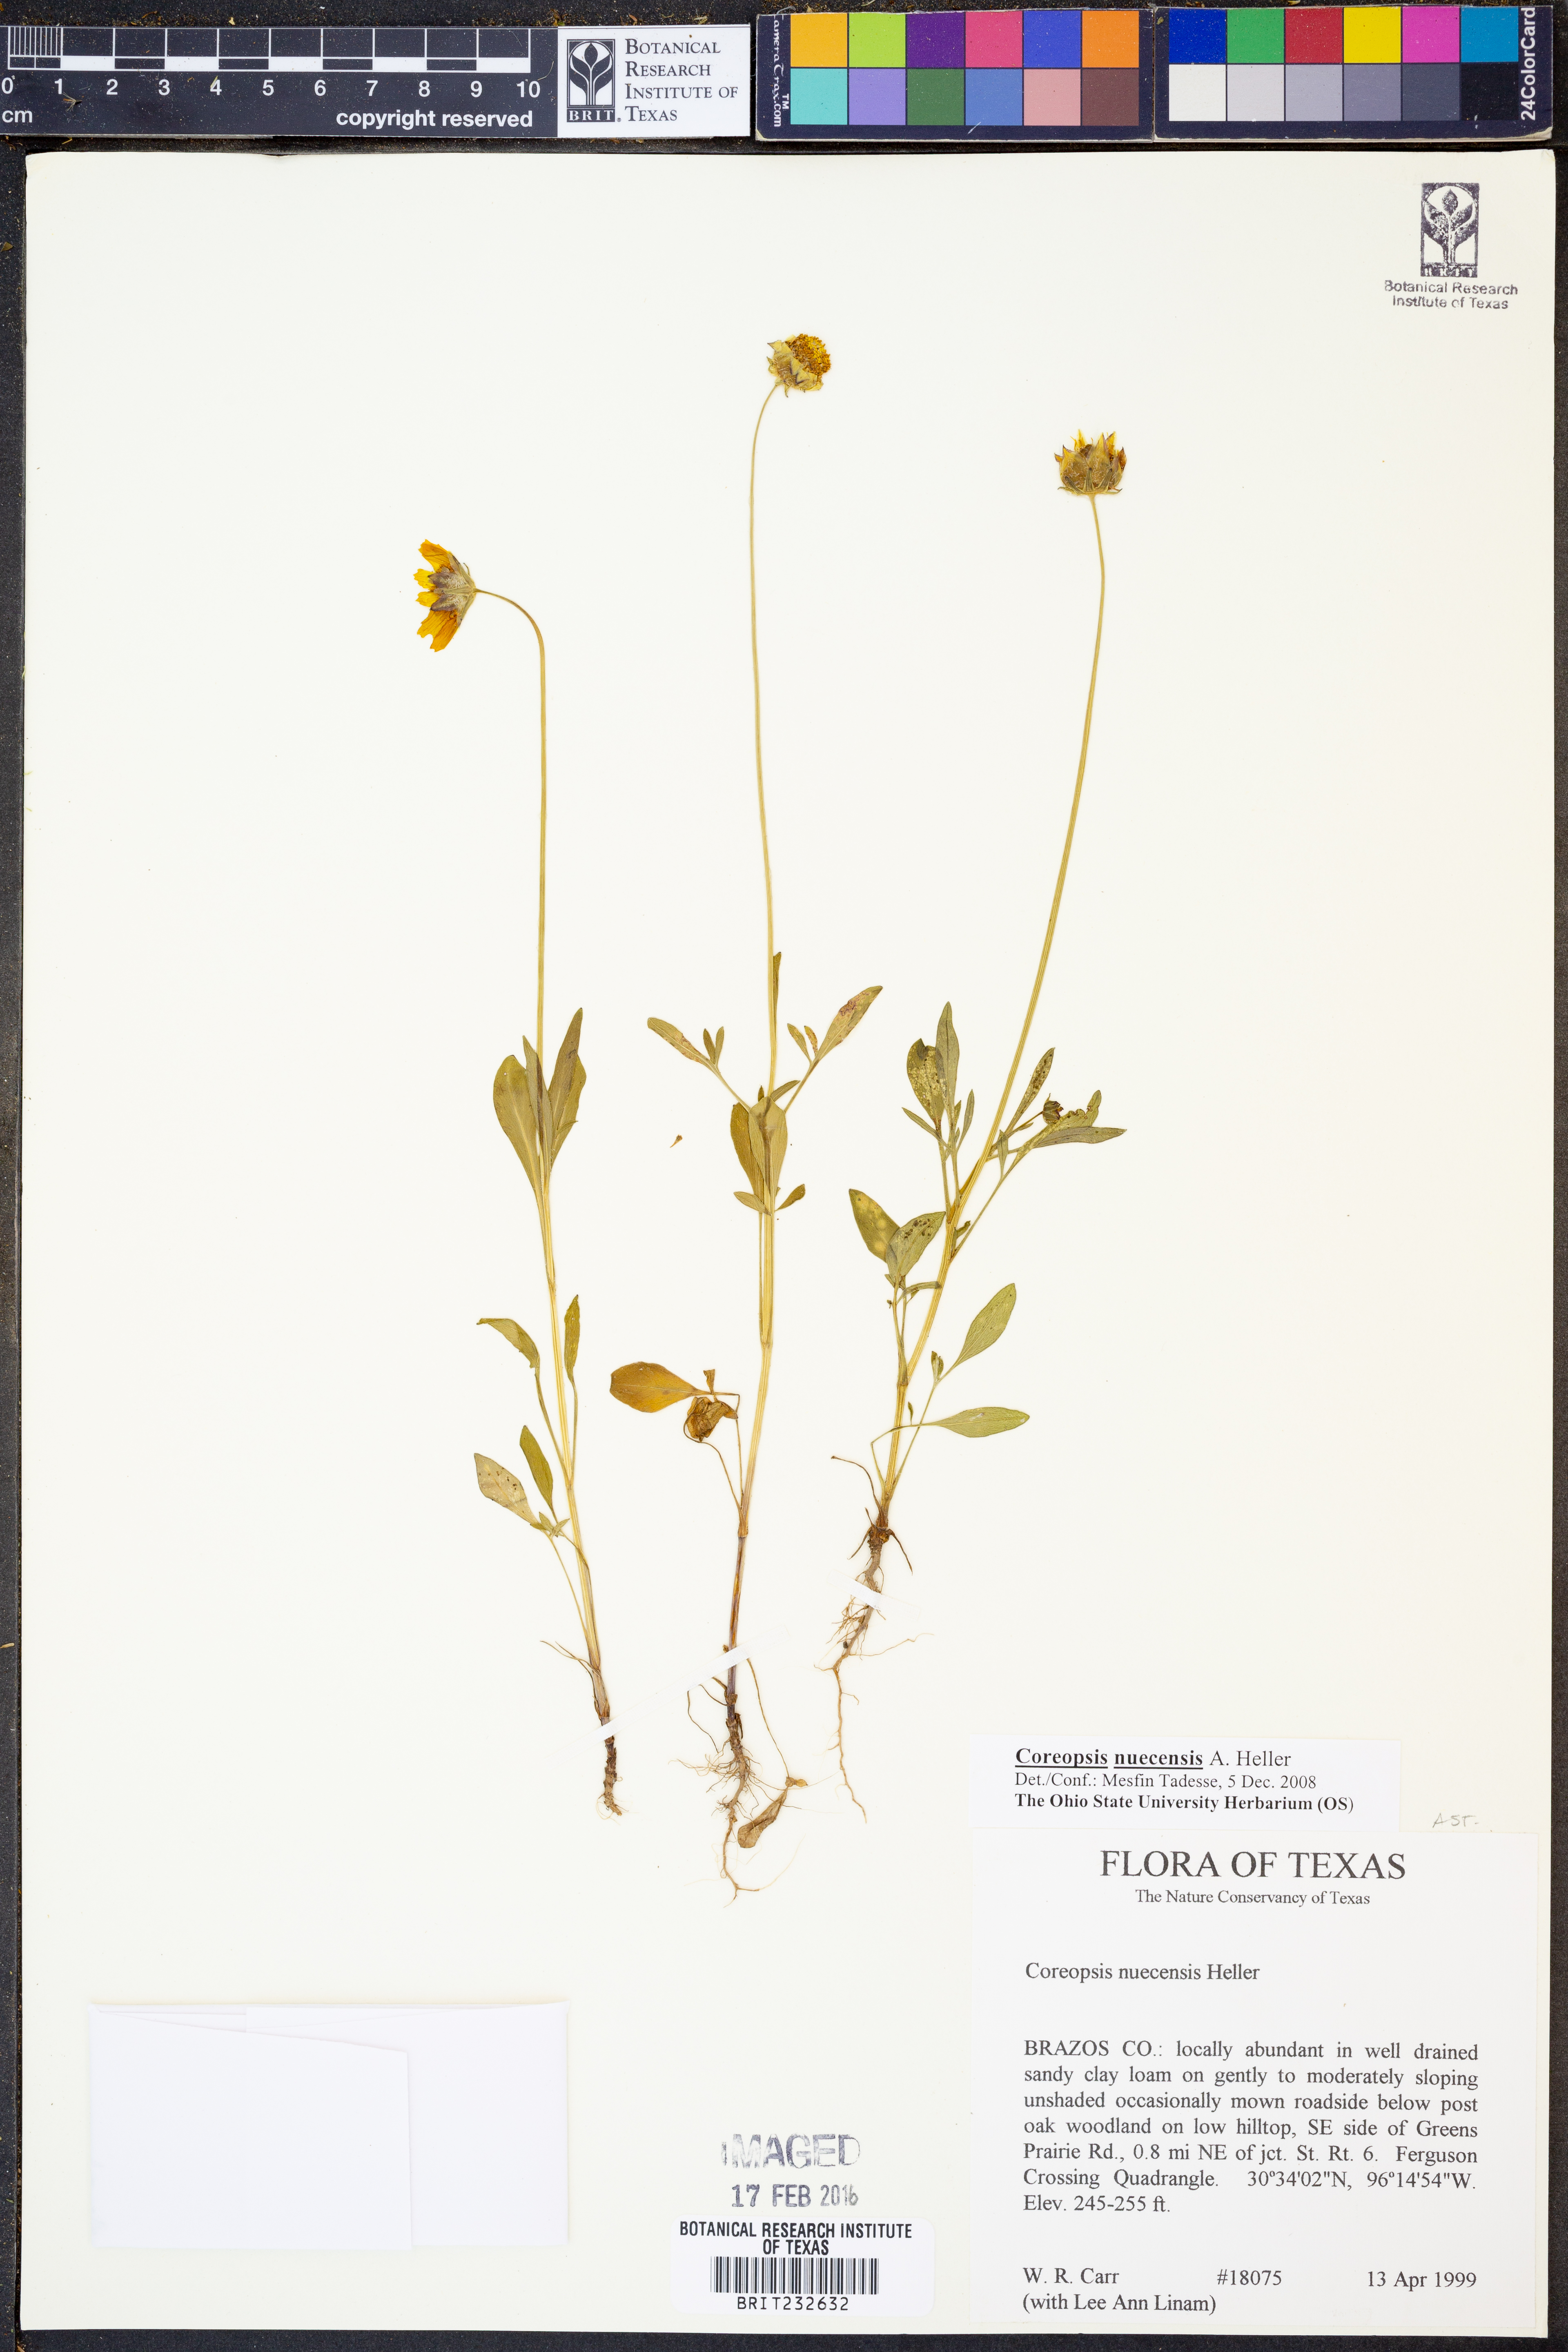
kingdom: Plantae
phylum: Tracheophyta
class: Magnoliopsida
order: Asterales
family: Asteraceae
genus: Coreopsis
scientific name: Coreopsis nuecensis
